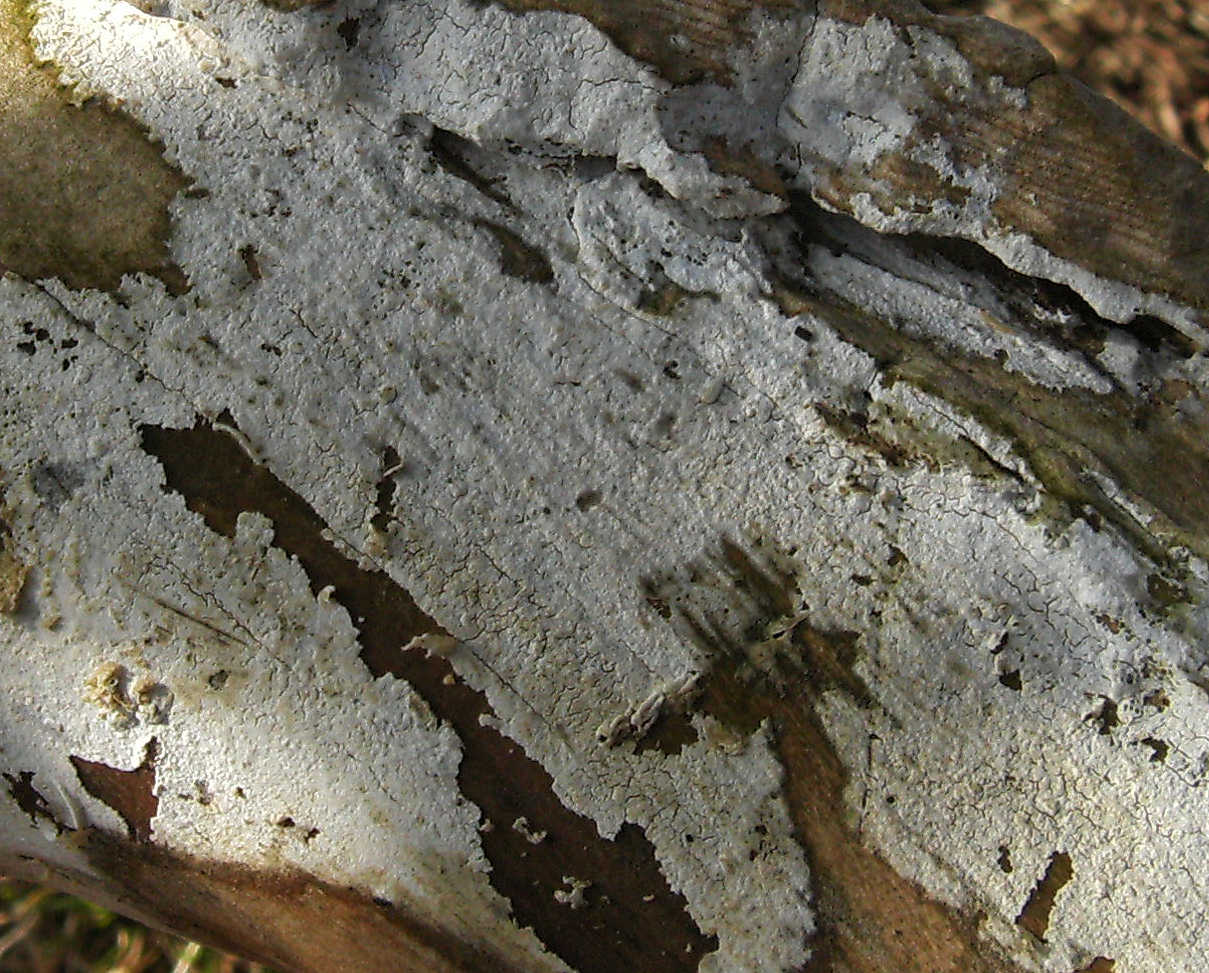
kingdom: Fungi
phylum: Basidiomycota
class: Agaricomycetes
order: Corticiales
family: Corticiaceae
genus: Lyomyces
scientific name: Lyomyces sambuci
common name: almindelig hyldehinde
